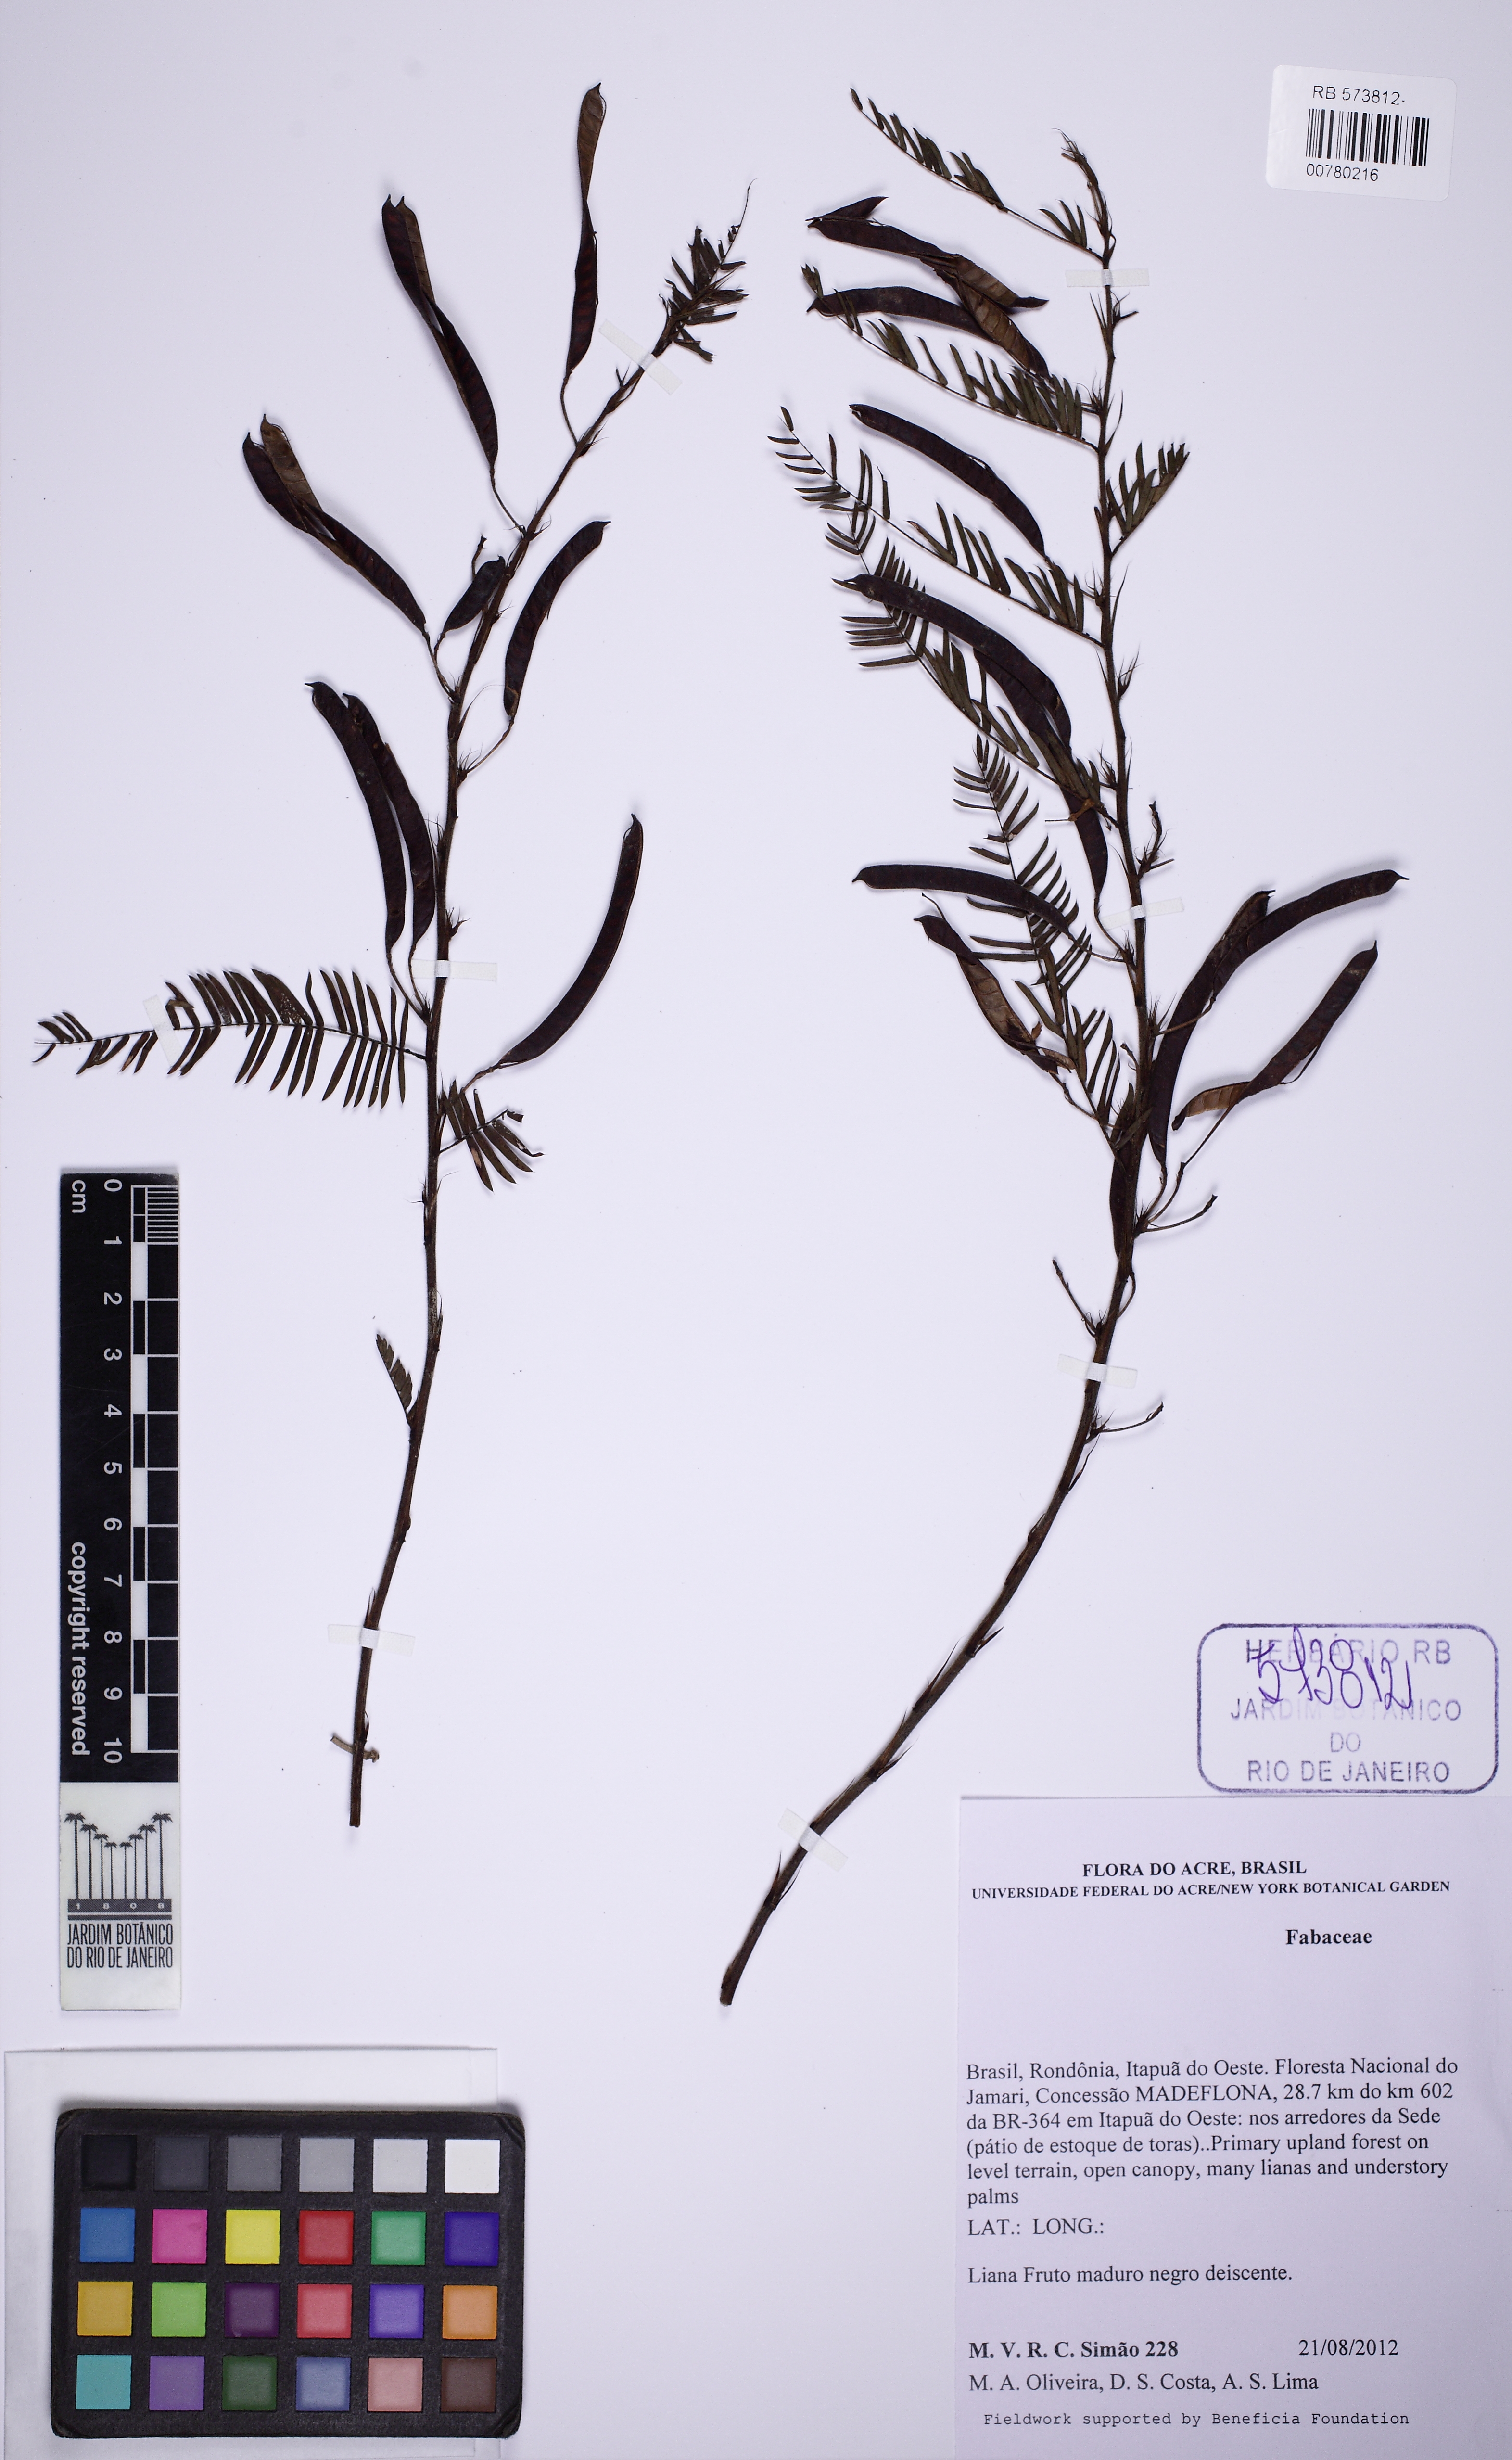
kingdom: Plantae
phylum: Tracheophyta
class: Magnoliopsida
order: Fabales
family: Fabaceae
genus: Chamaecrista
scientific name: Chamaecrista
